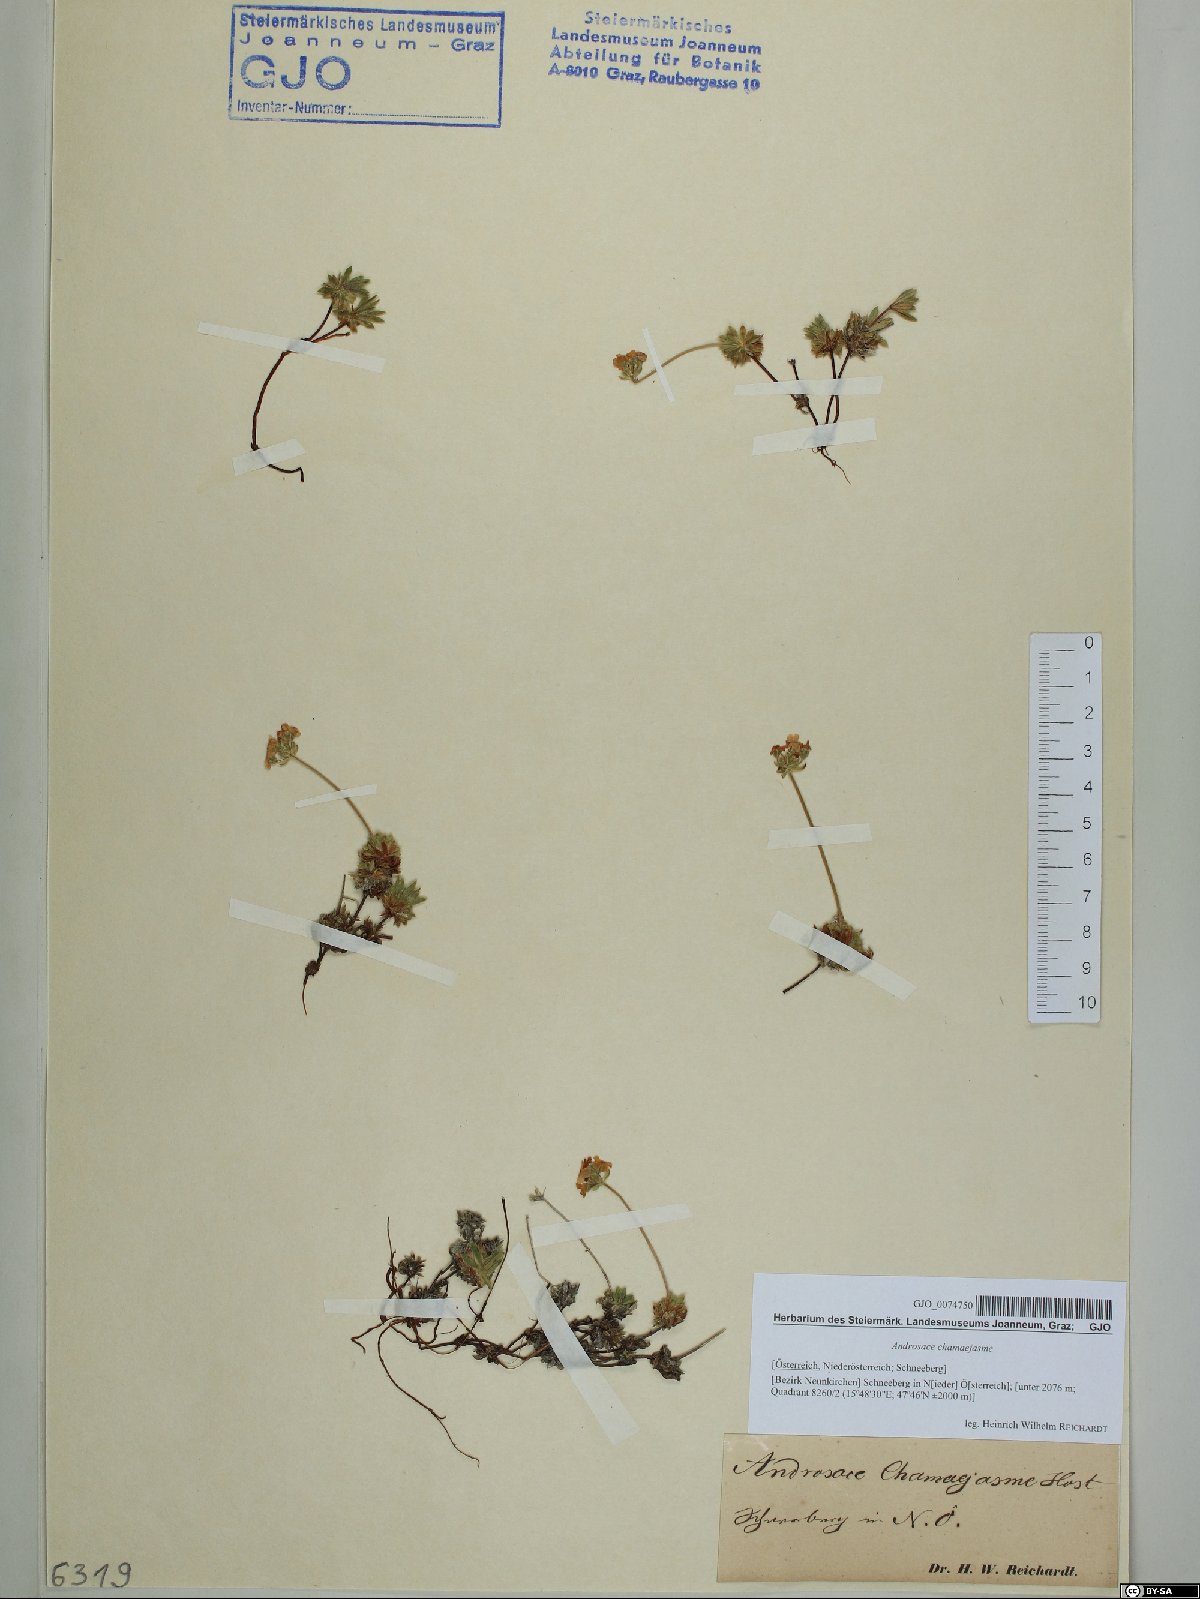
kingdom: Plantae
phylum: Tracheophyta
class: Magnoliopsida
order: Ericales
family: Primulaceae
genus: Androsace
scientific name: Androsace chamaejasme
